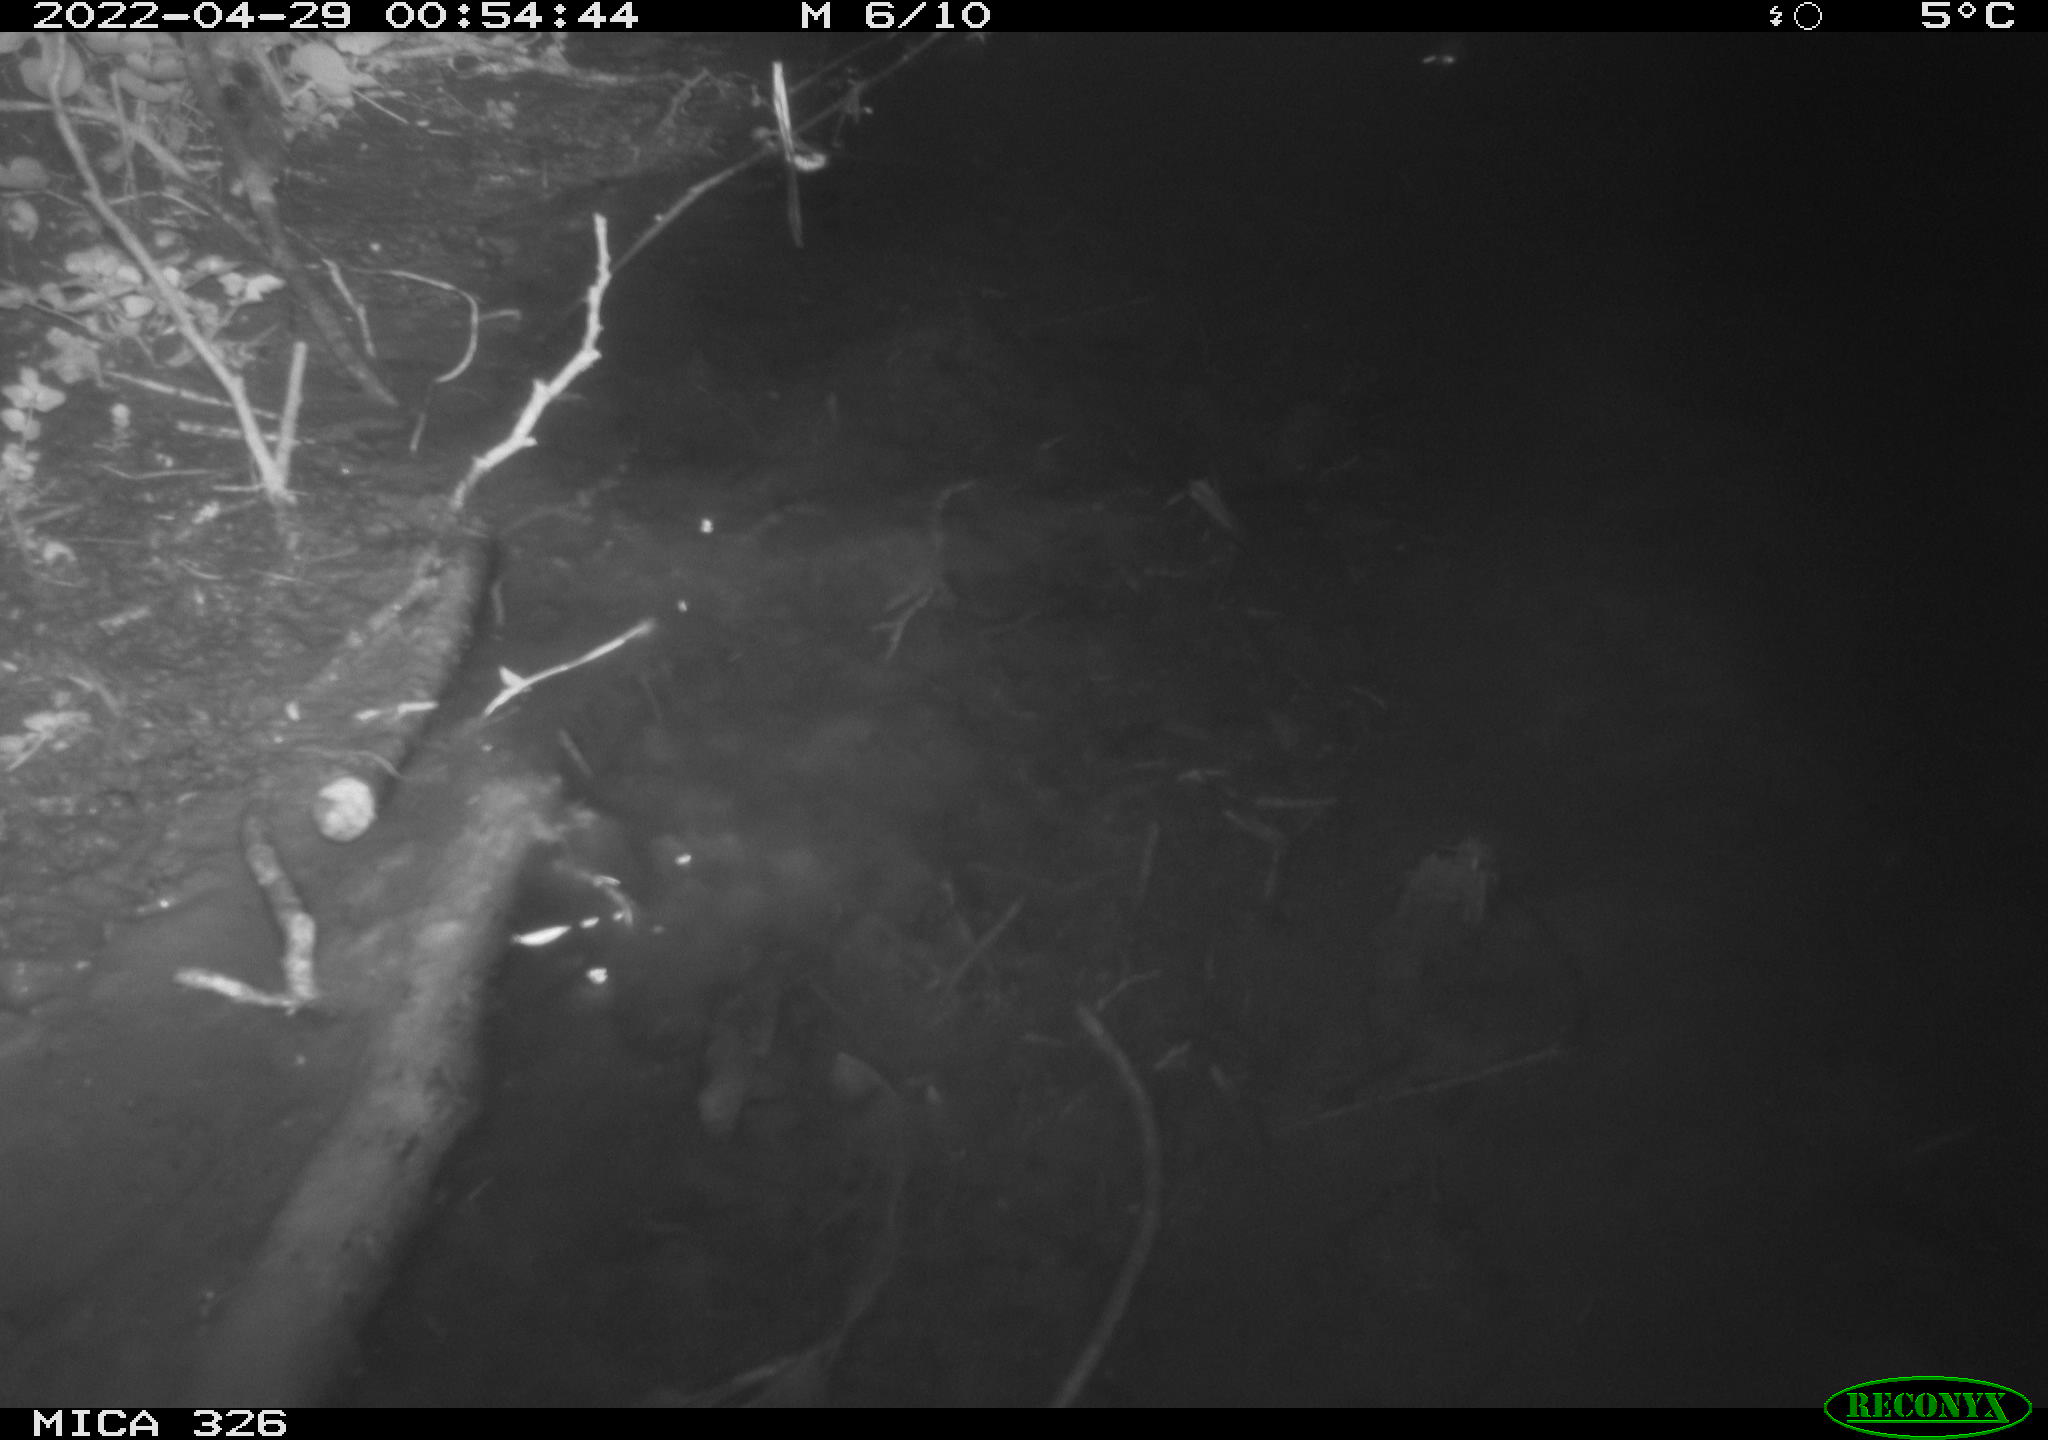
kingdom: Animalia
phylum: Chordata
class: Mammalia
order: Rodentia
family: Muridae
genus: Rattus
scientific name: Rattus norvegicus
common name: Brown rat
